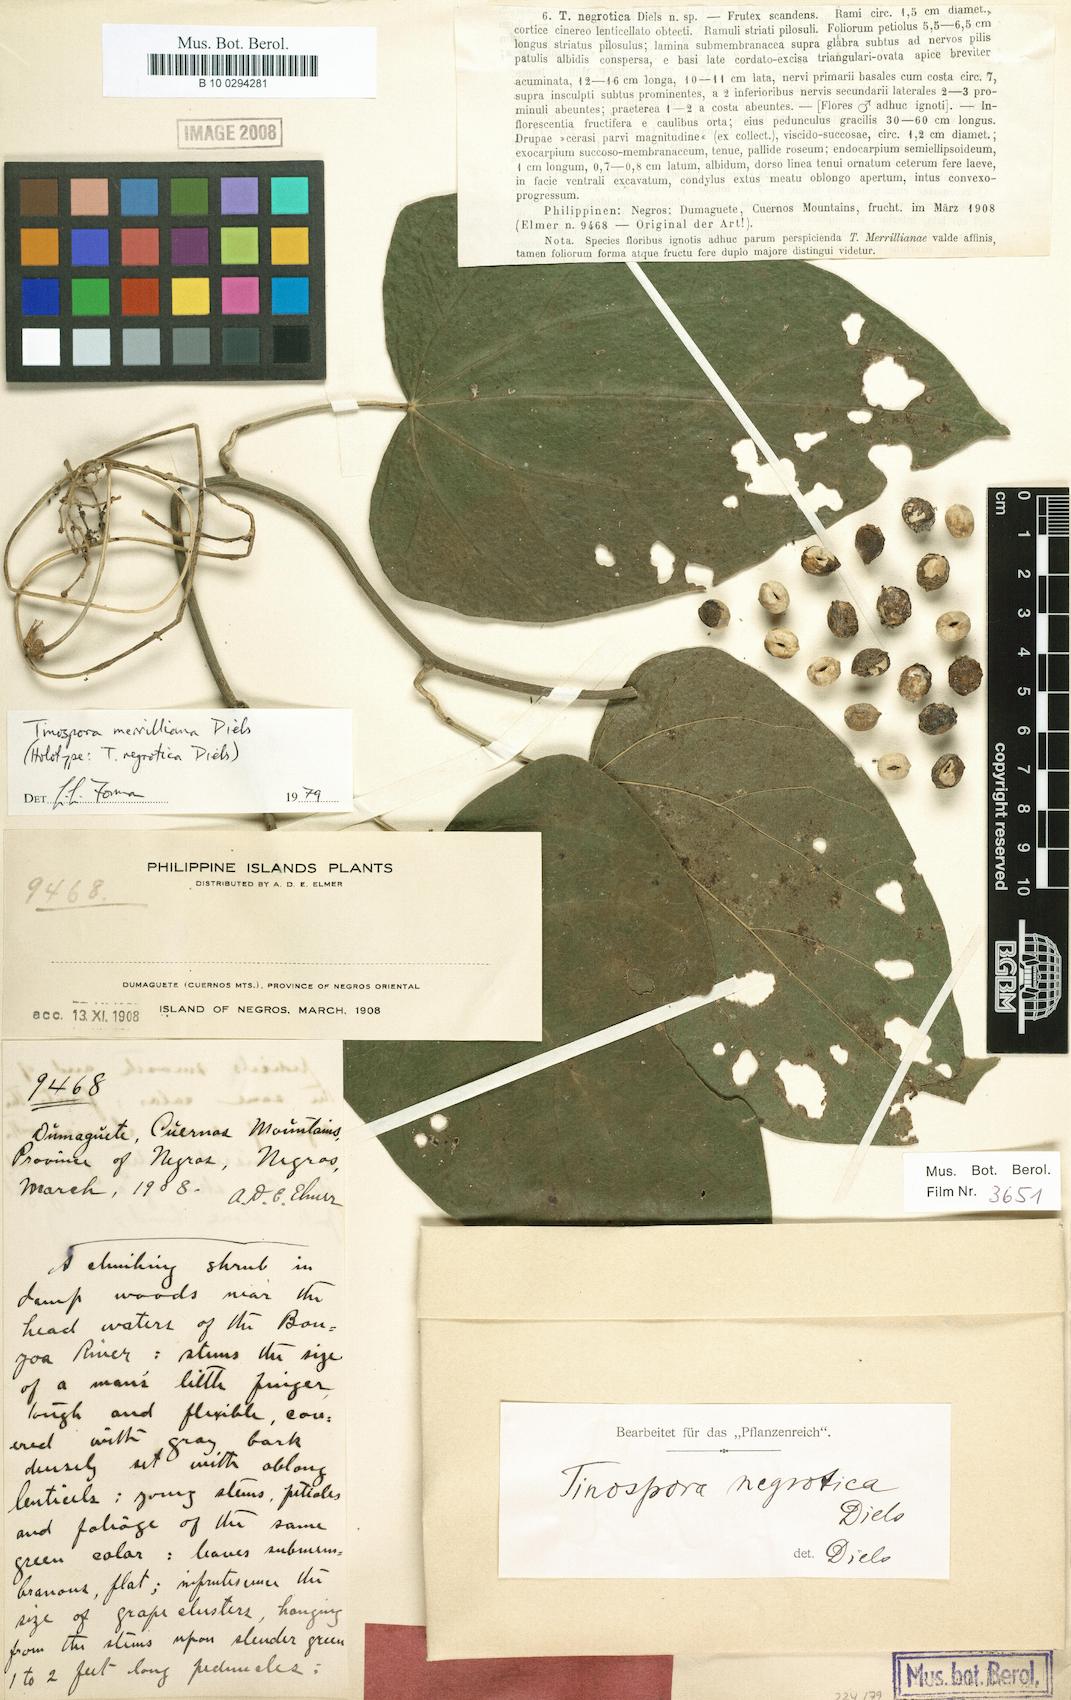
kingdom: Plantae
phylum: Tracheophyta
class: Magnoliopsida
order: Ranunculales
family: Menispermaceae
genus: Tinospora
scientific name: Tinospora merrilliana
